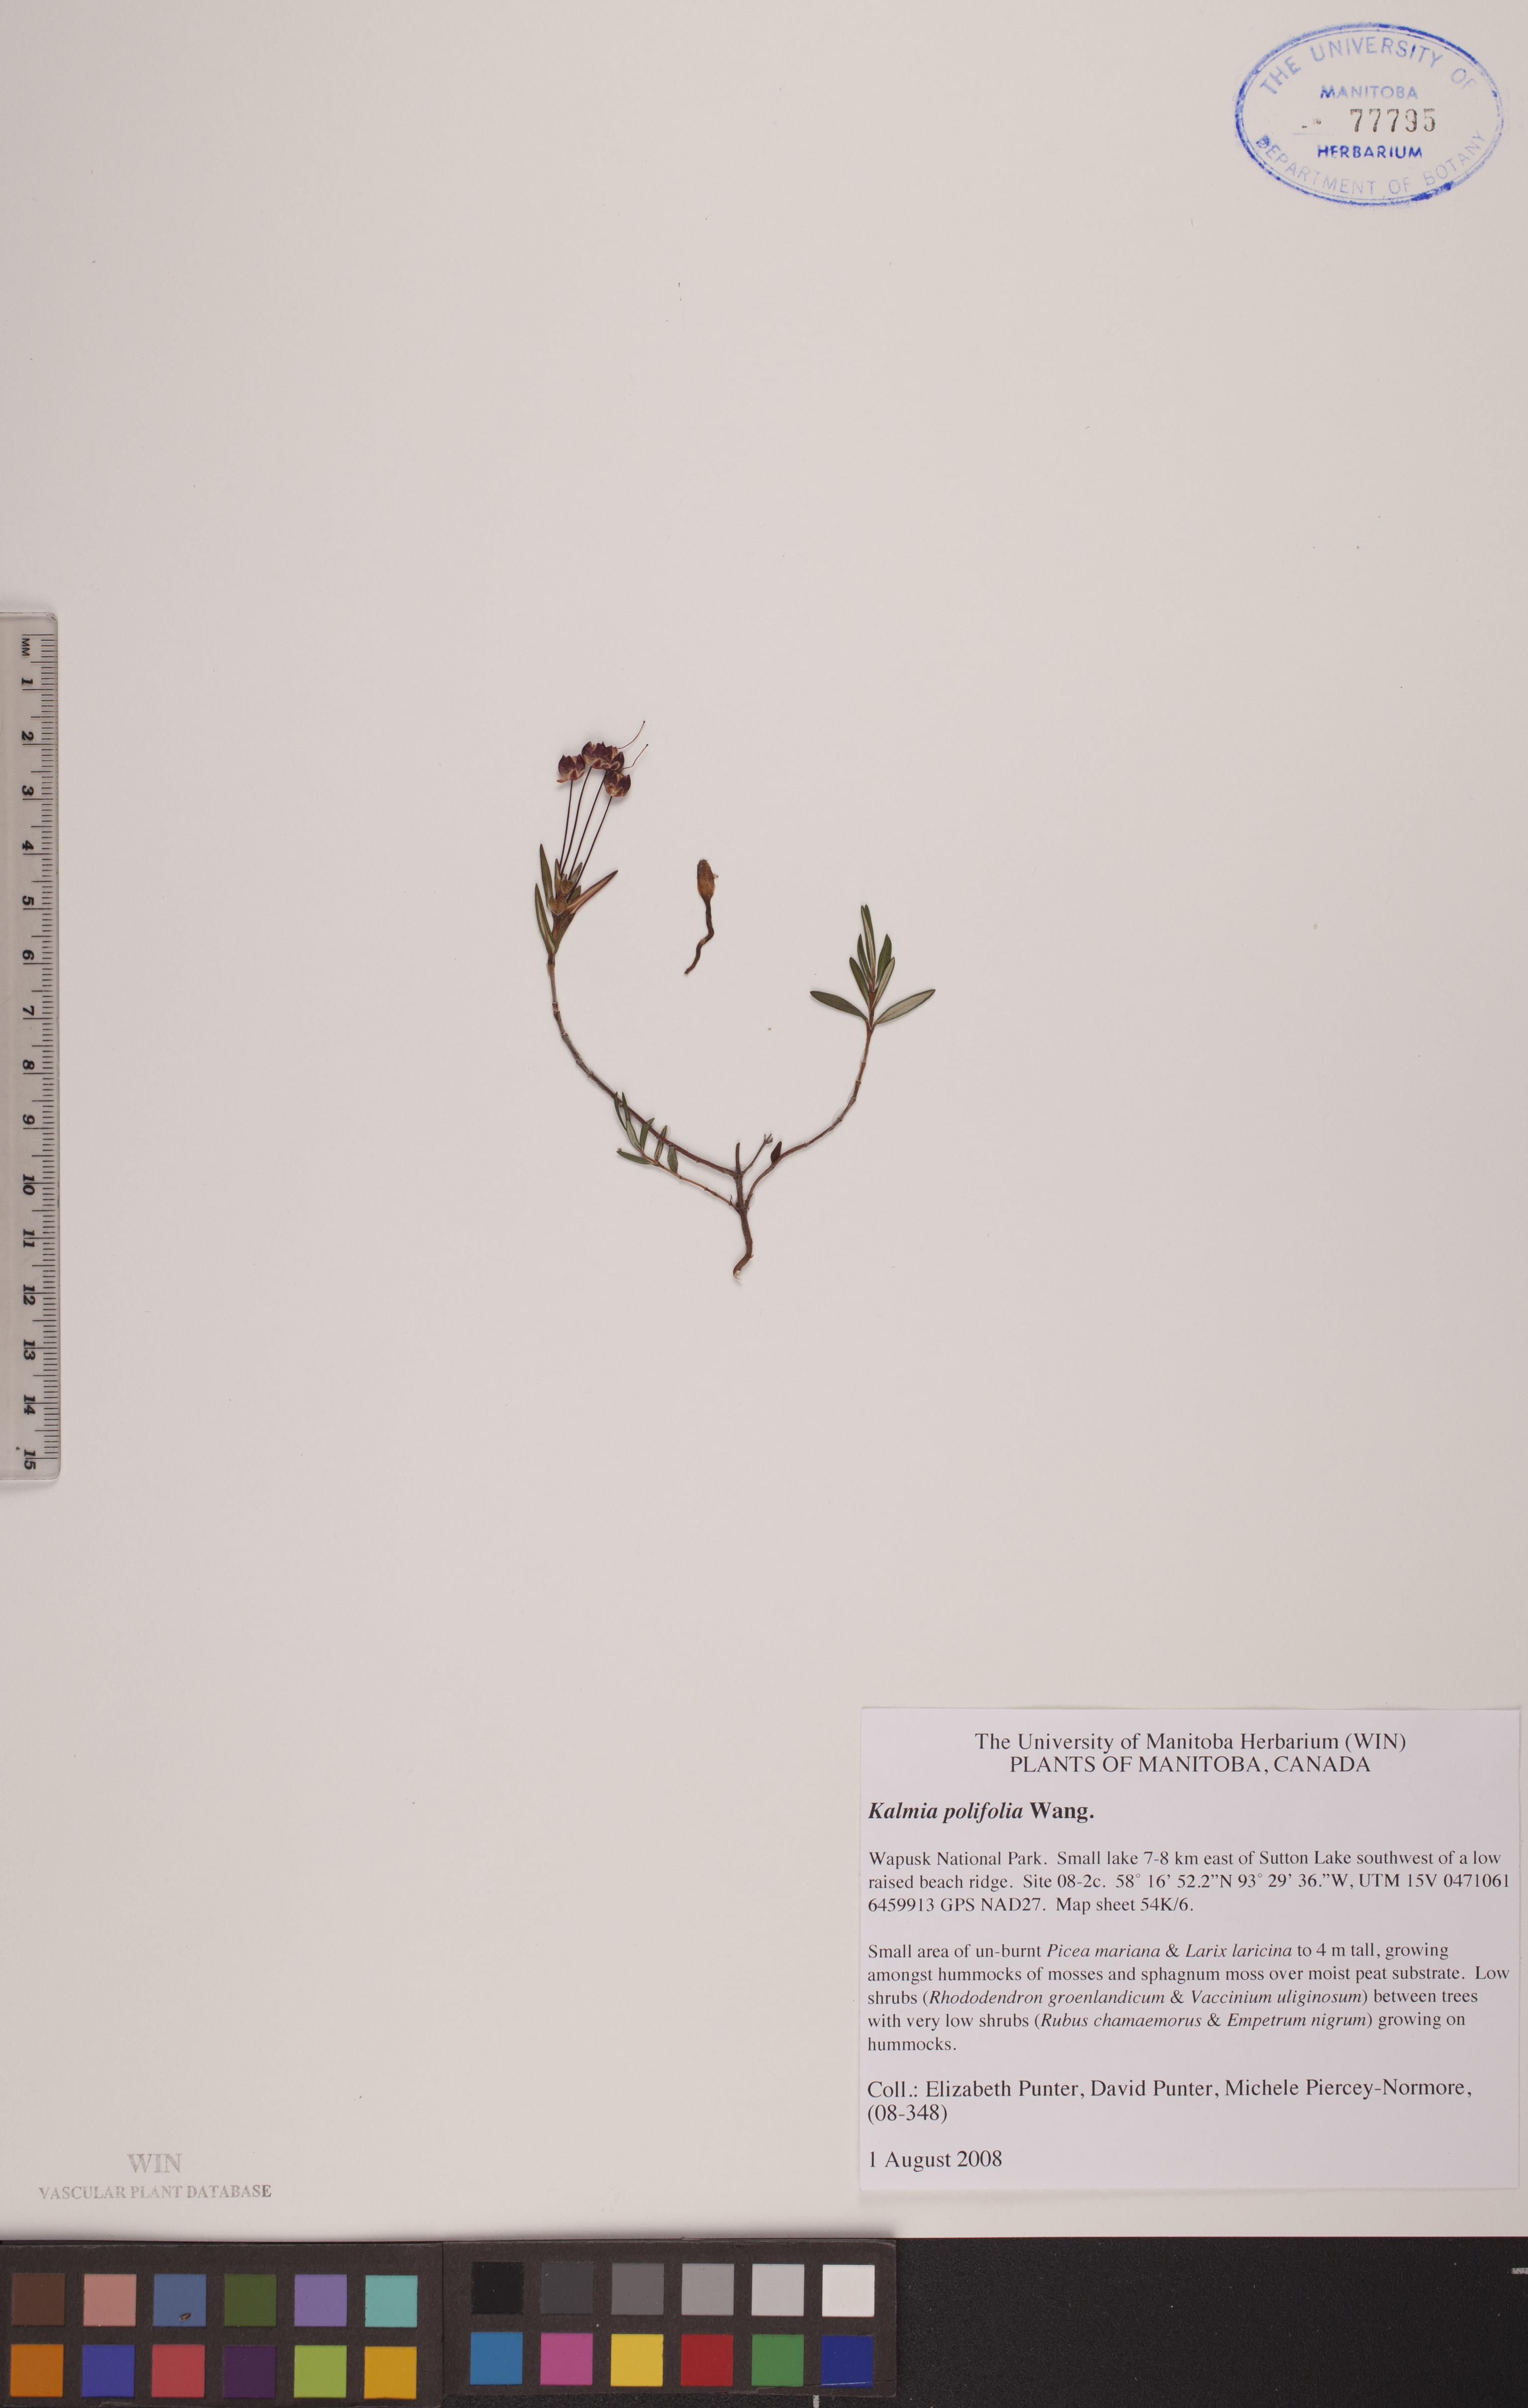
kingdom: Plantae
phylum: Tracheophyta
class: Magnoliopsida
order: Ericales
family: Ericaceae
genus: Kalmia
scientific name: Kalmia polifolia
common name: Bog-laurel
